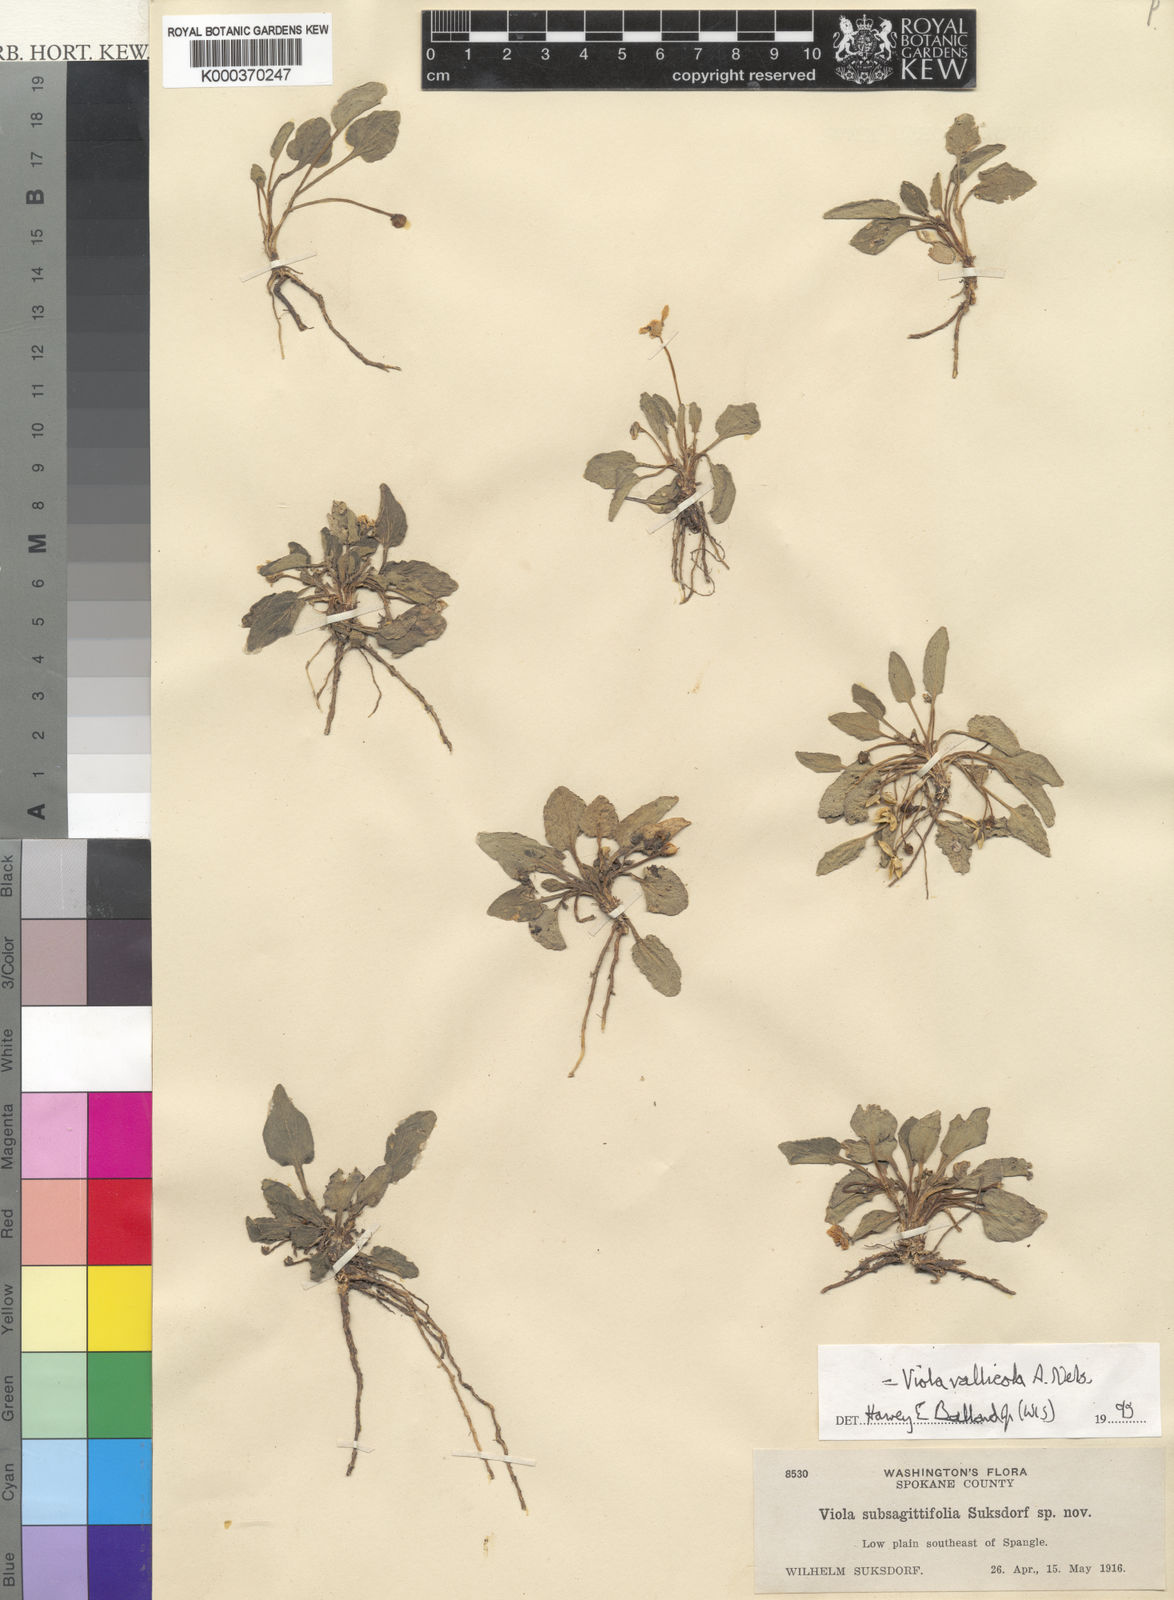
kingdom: Plantae
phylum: Tracheophyta
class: Magnoliopsida
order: Malpighiales
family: Violaceae
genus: Viola
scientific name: Viola vallicola
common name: Valley violet
